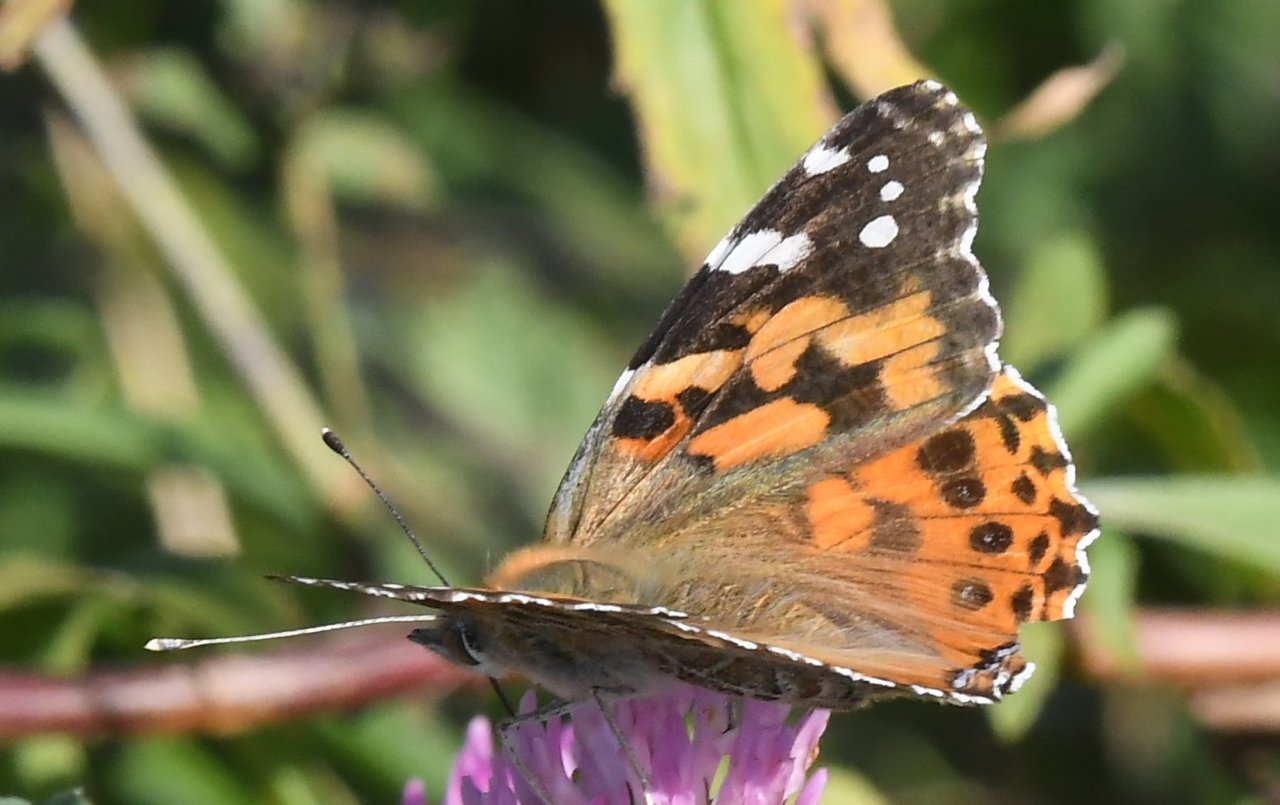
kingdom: Animalia
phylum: Arthropoda
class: Insecta
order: Lepidoptera
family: Nymphalidae
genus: Vanessa
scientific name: Vanessa cardui
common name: Painted Lady
